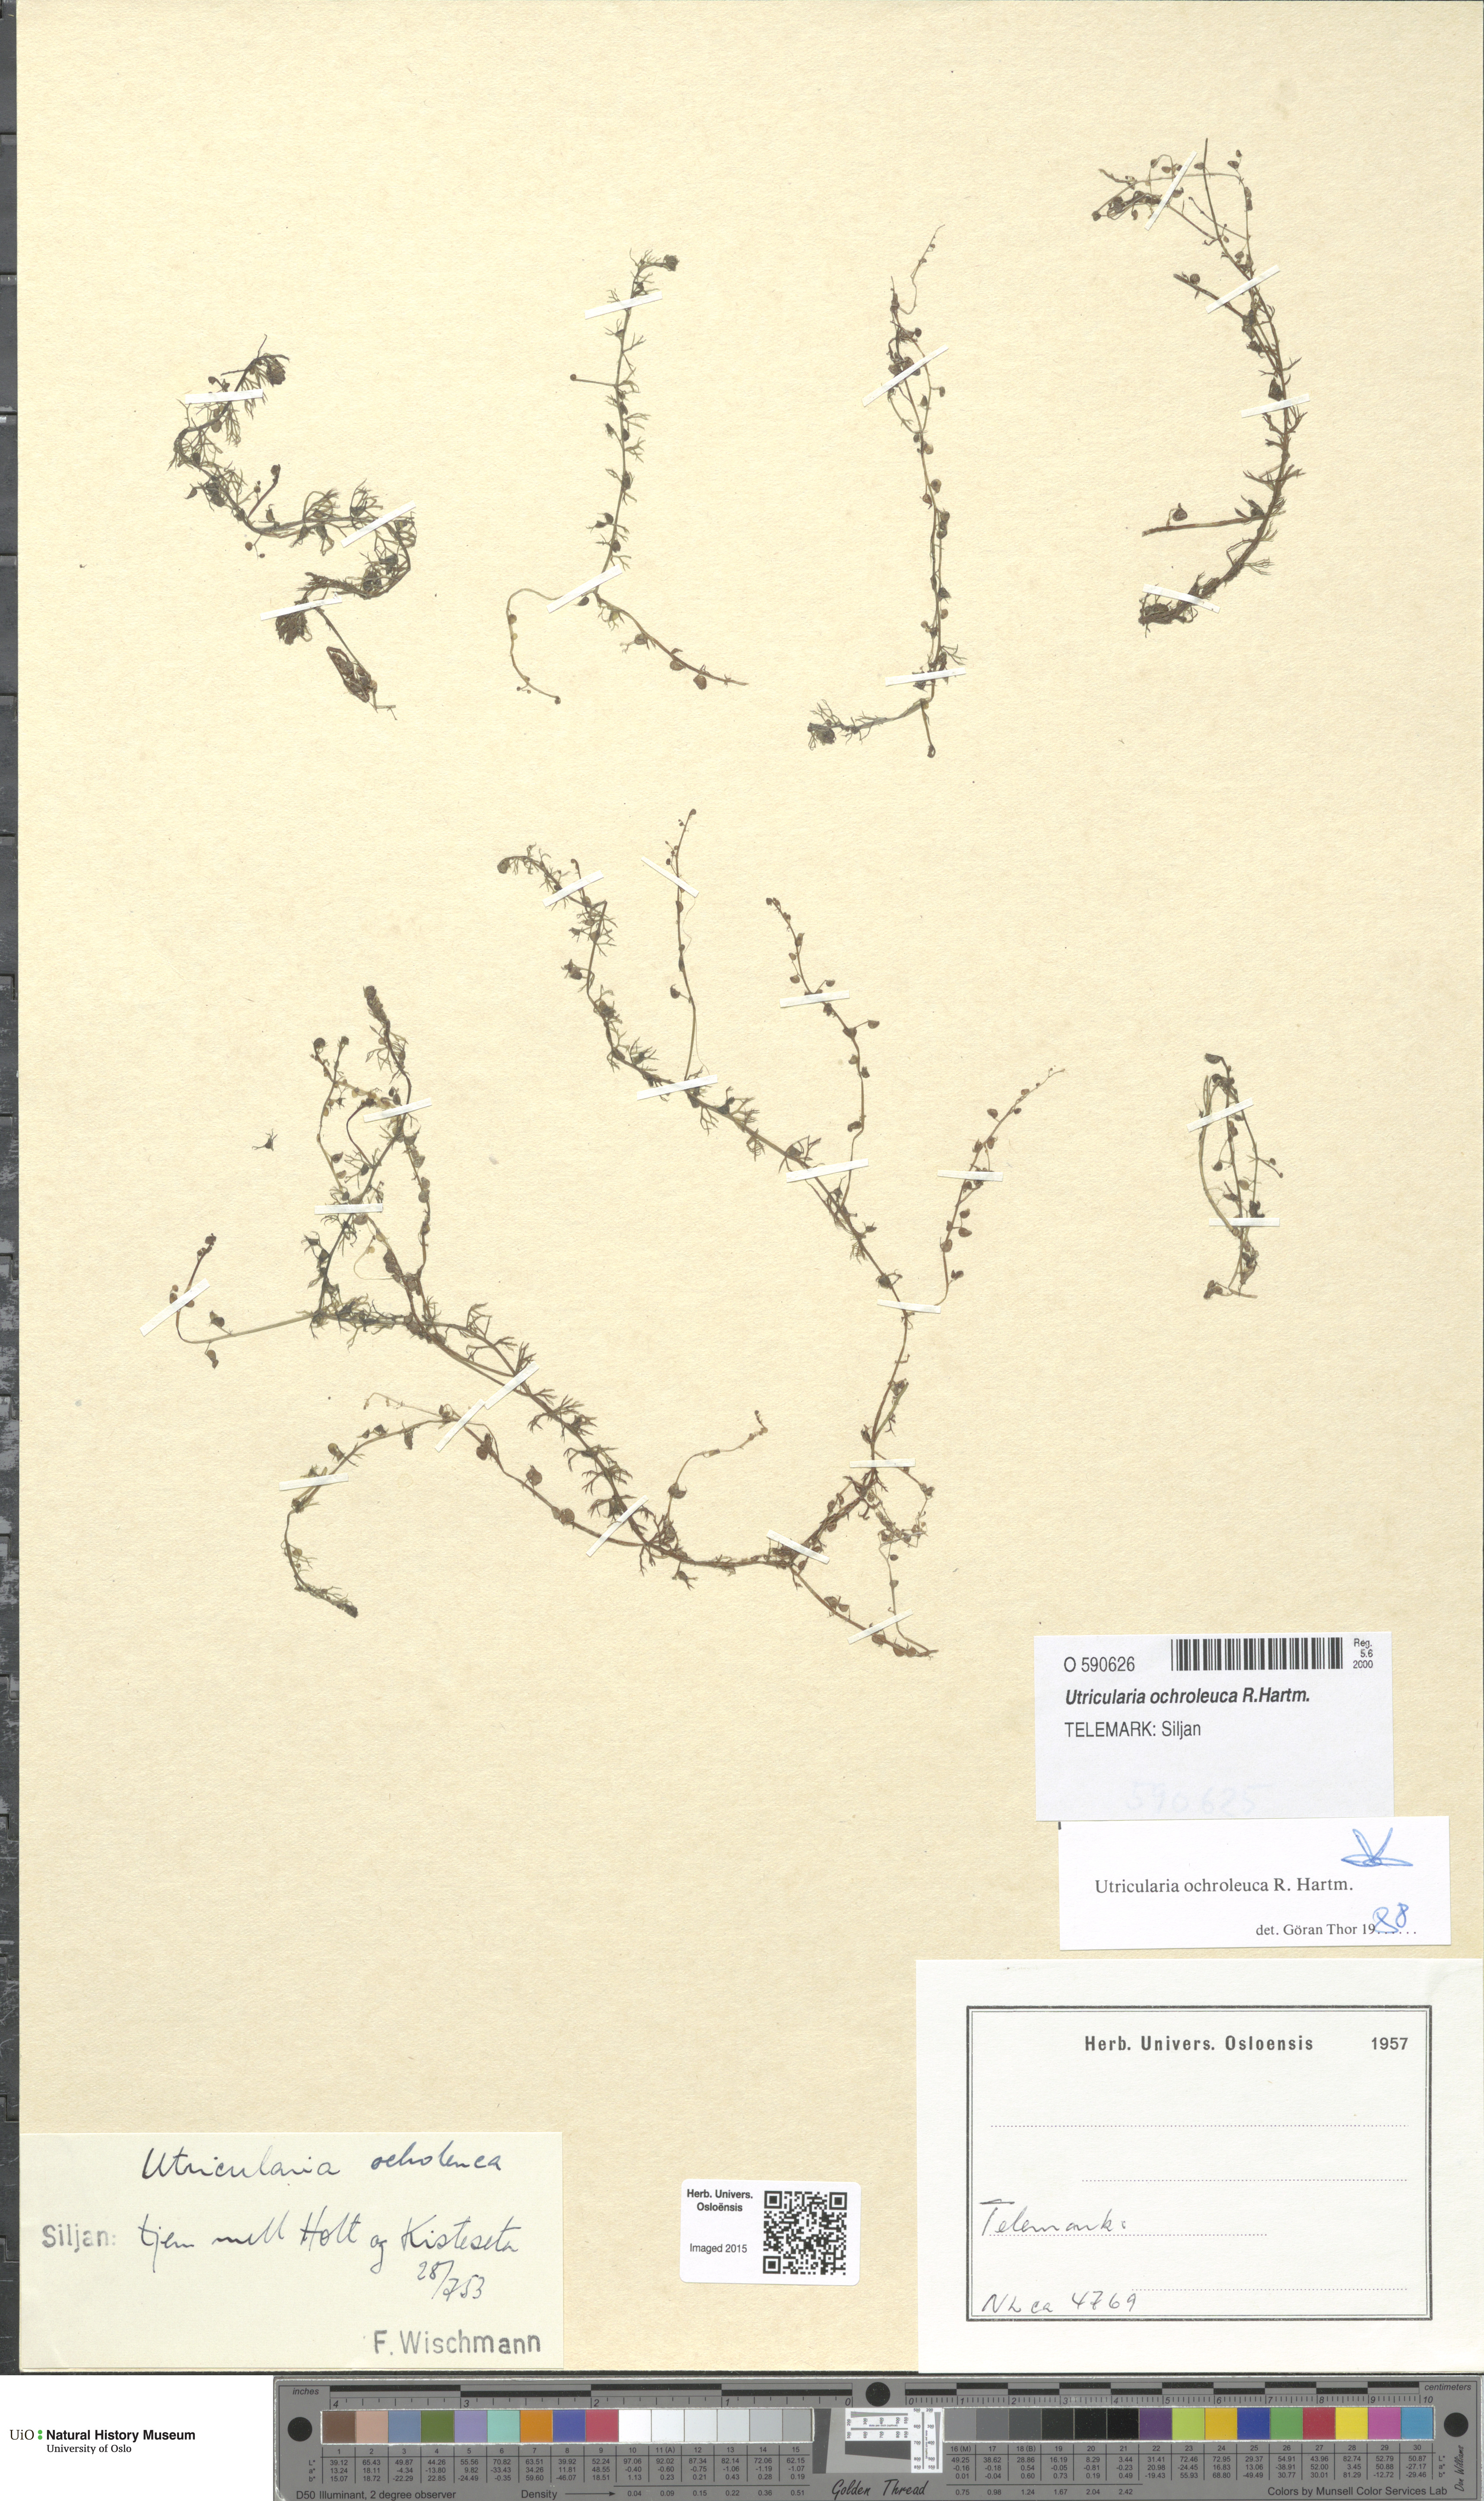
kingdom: Plantae
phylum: Tracheophyta
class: Magnoliopsida
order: Lamiales
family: Lentibulariaceae
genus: Utricularia
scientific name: Utricularia ochroleuca
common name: Pale bladderwort
